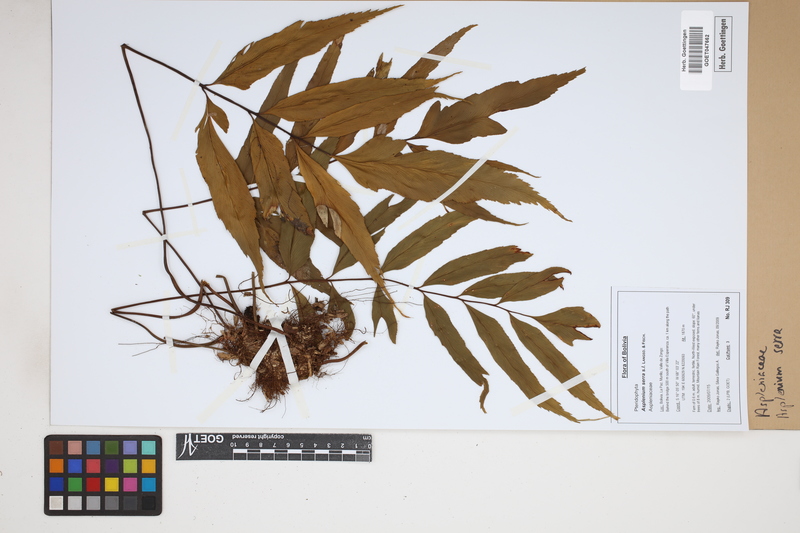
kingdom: Plantae
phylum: Tracheophyta
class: Polypodiopsida
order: Polypodiales
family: Aspleniaceae
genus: Asplenium
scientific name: Asplenium serra
